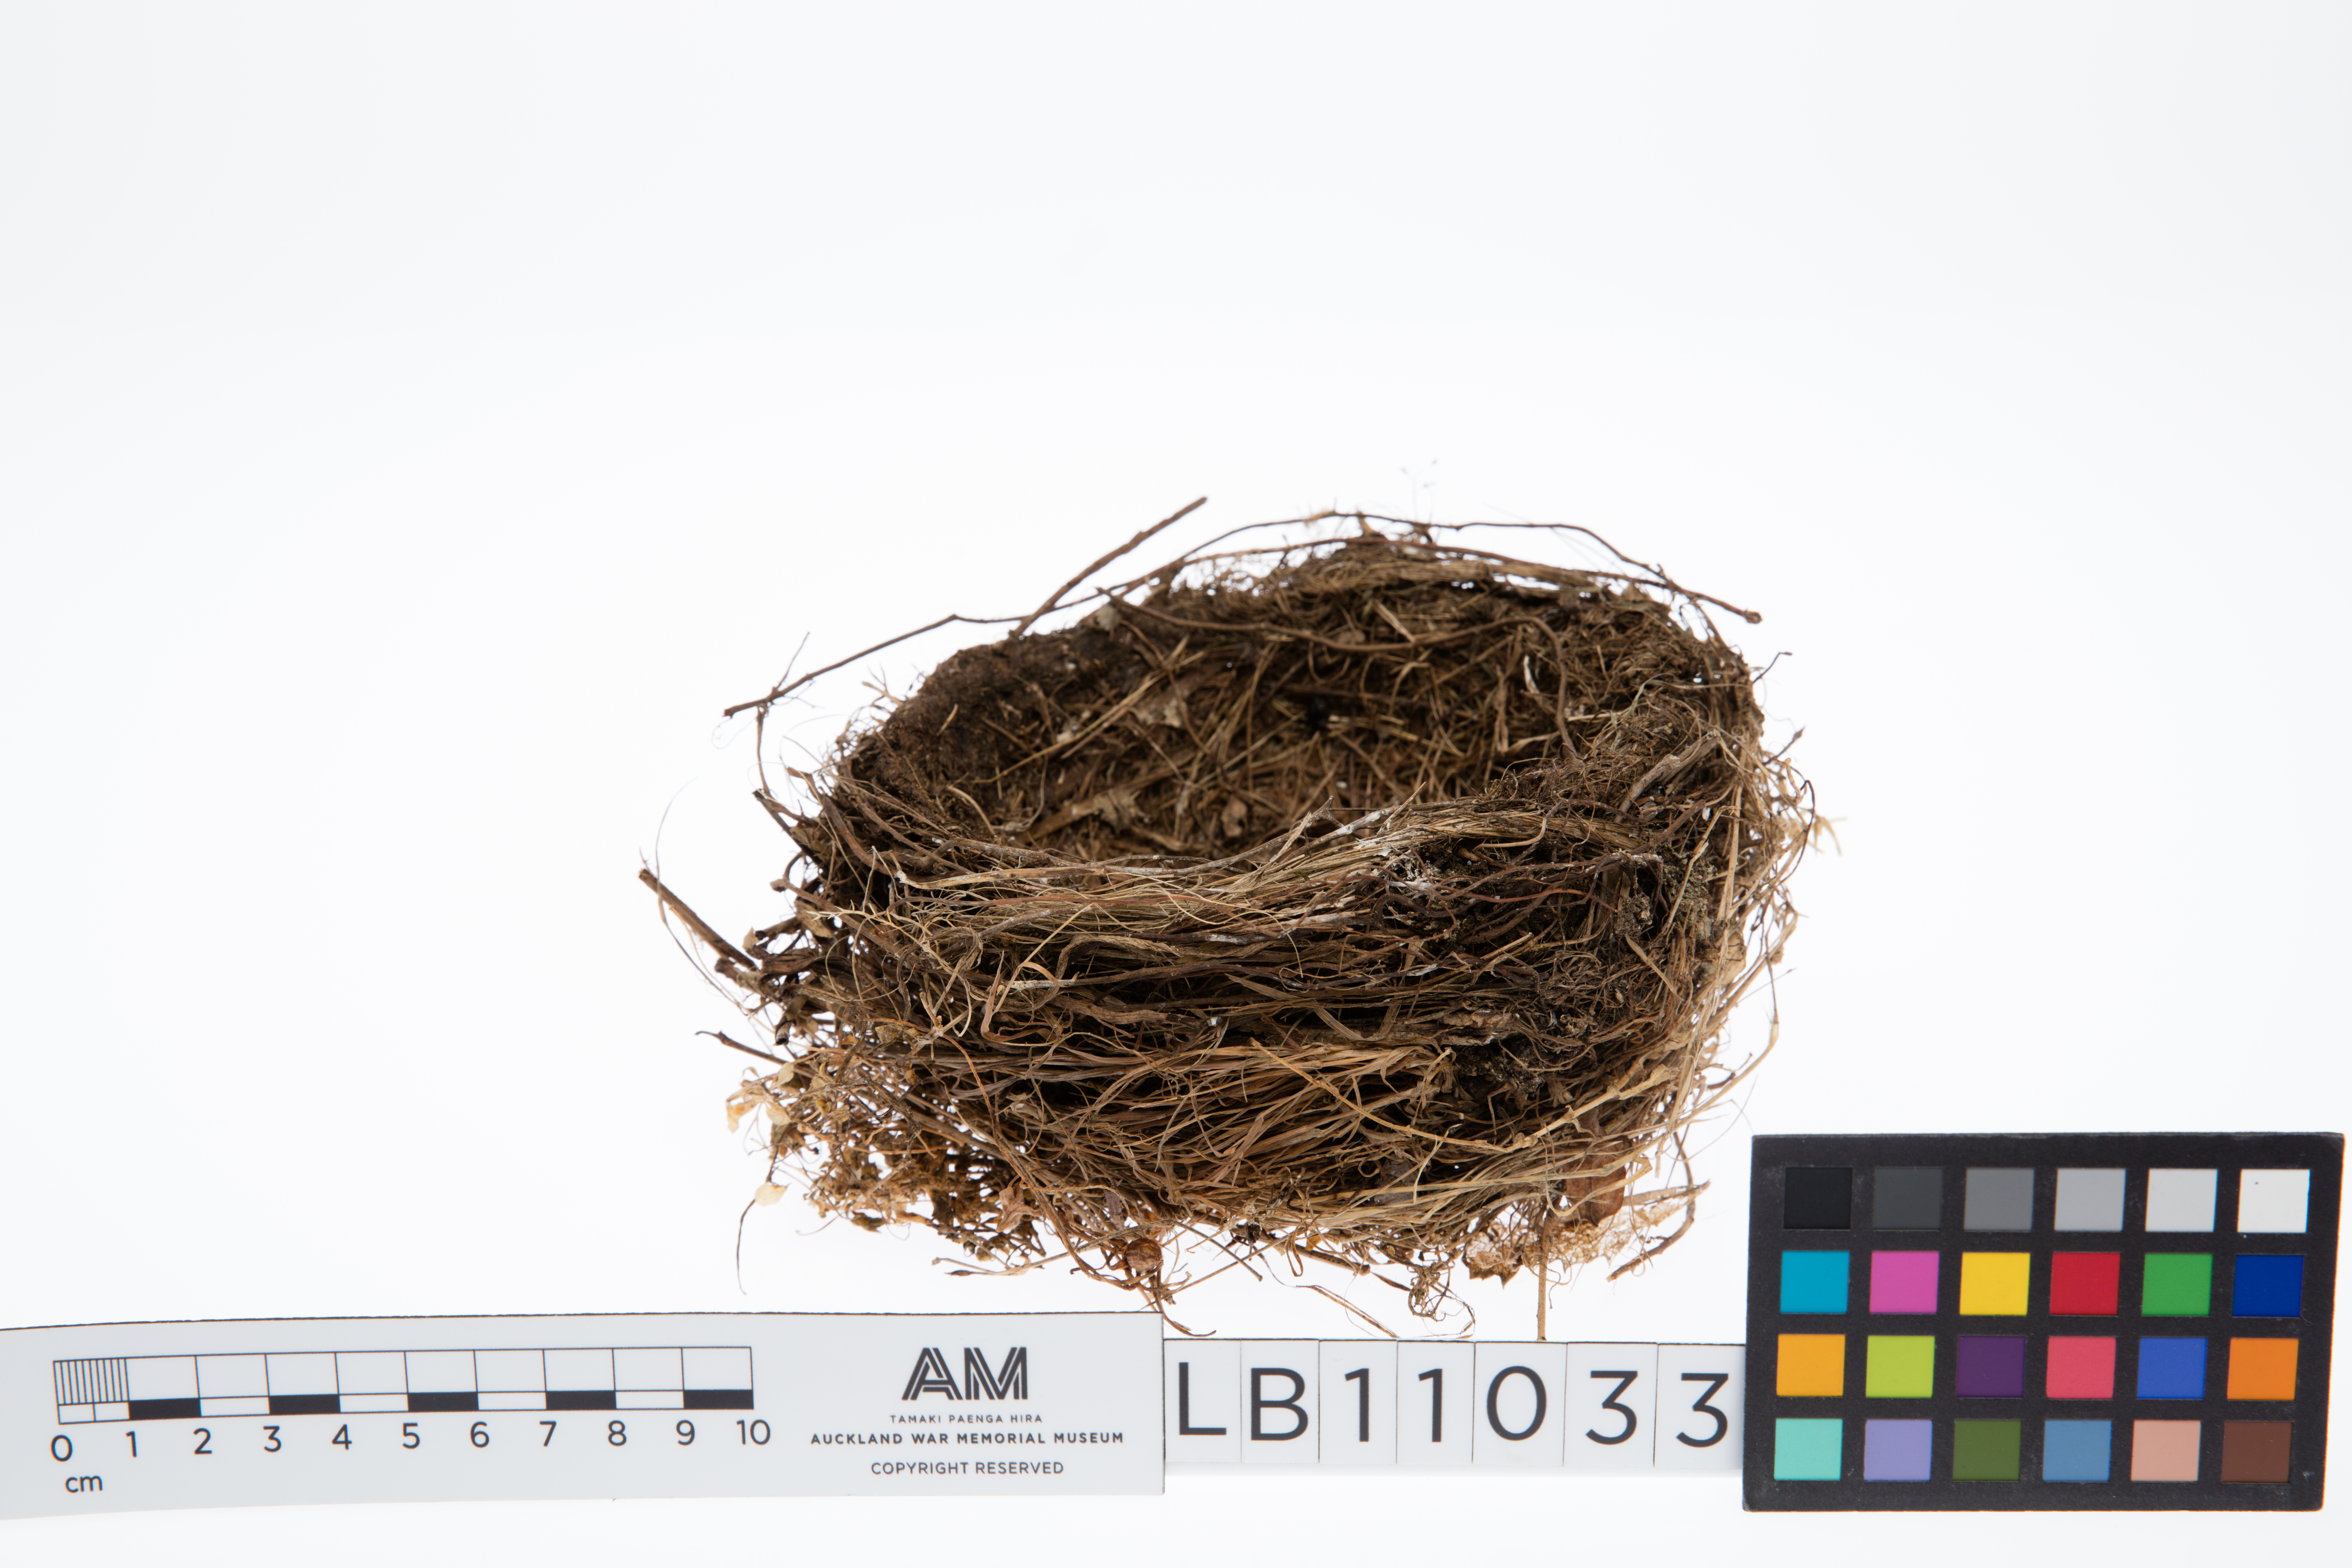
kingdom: Animalia
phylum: Chordata
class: Aves
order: Passeriformes
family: Turdidae
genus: Turdus
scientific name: Turdus merula
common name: Common blackbird
